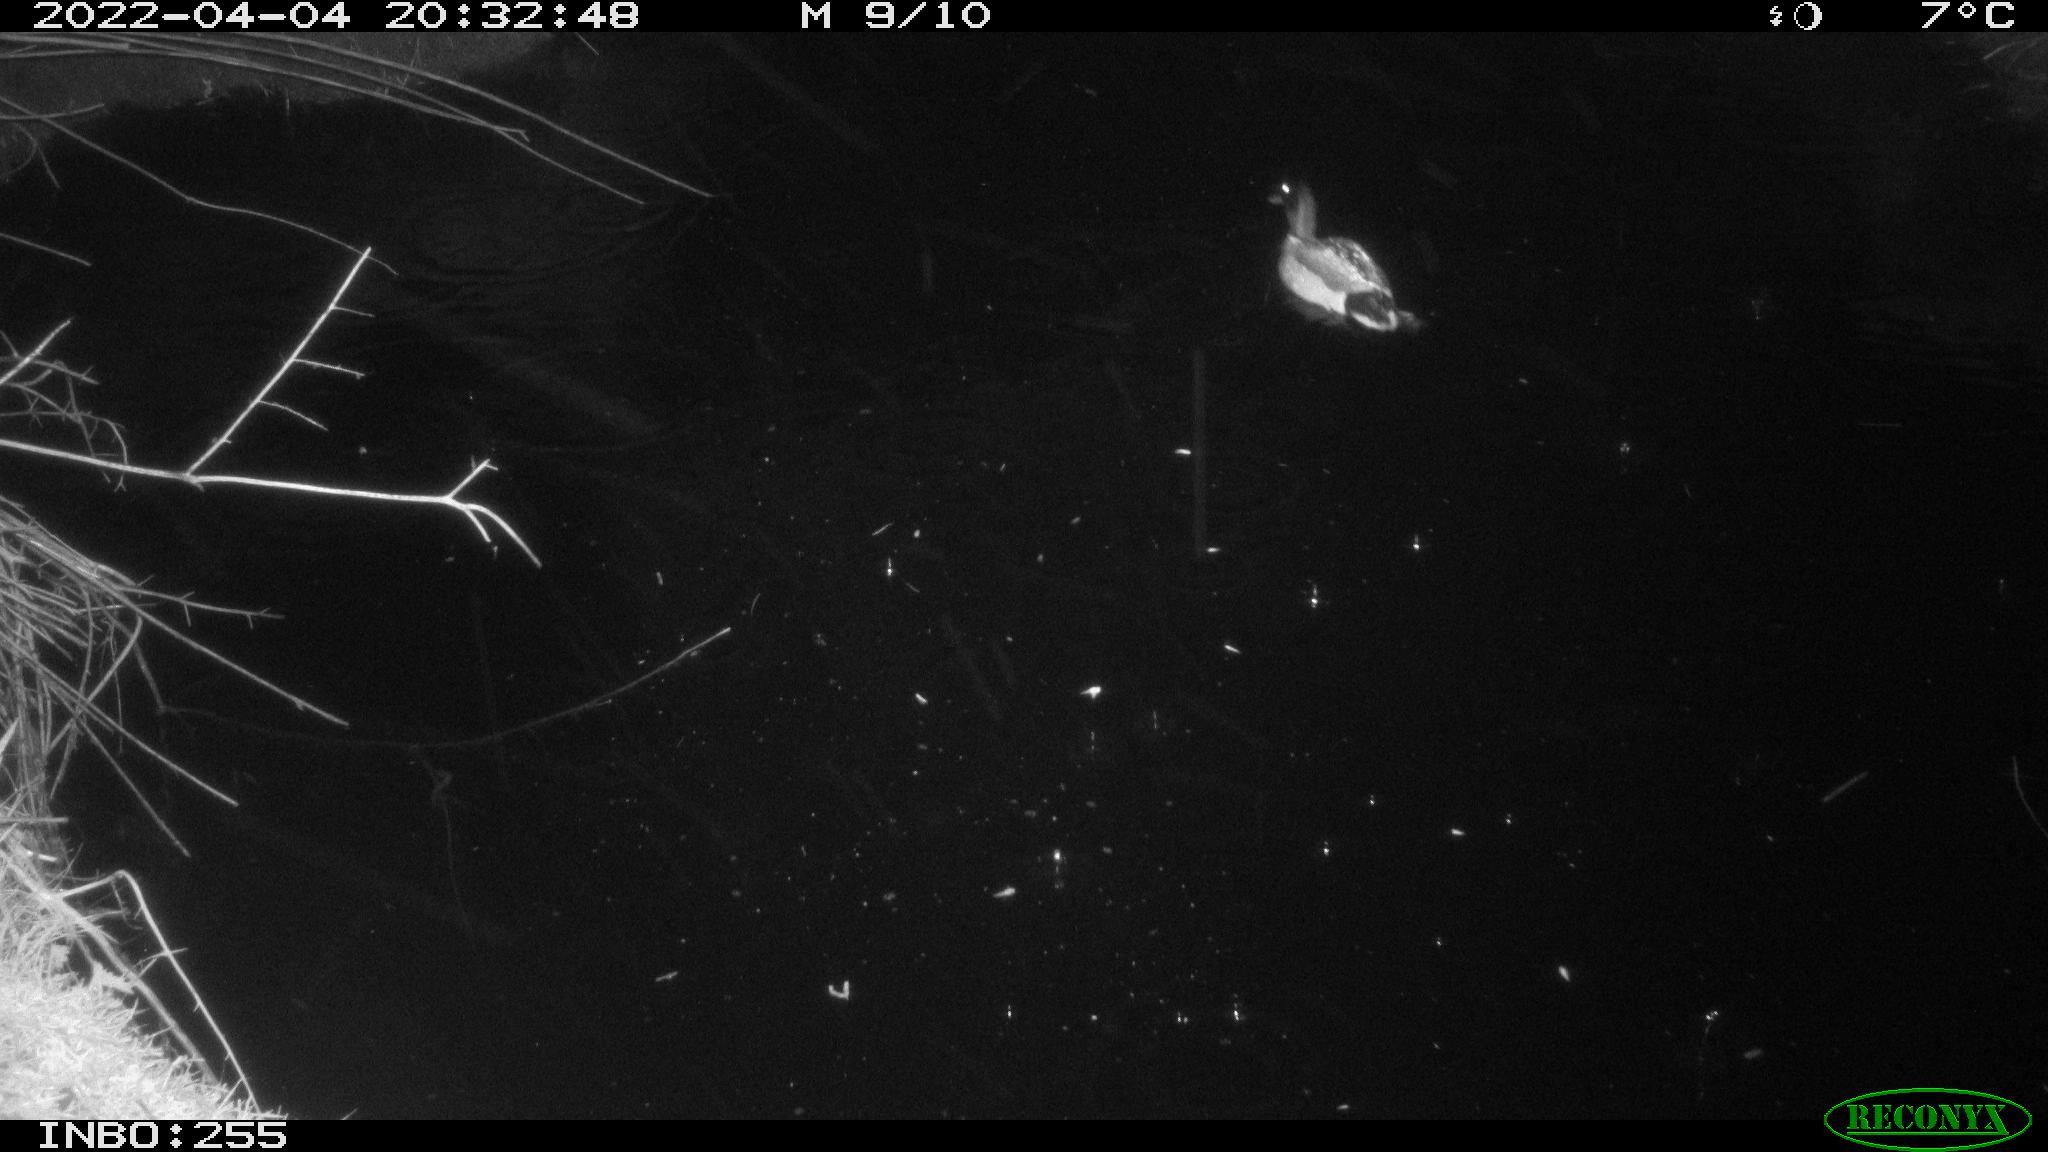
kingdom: Animalia
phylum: Chordata
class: Aves
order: Anseriformes
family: Anatidae
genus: Anas
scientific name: Anas platyrhynchos
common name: Mallard
